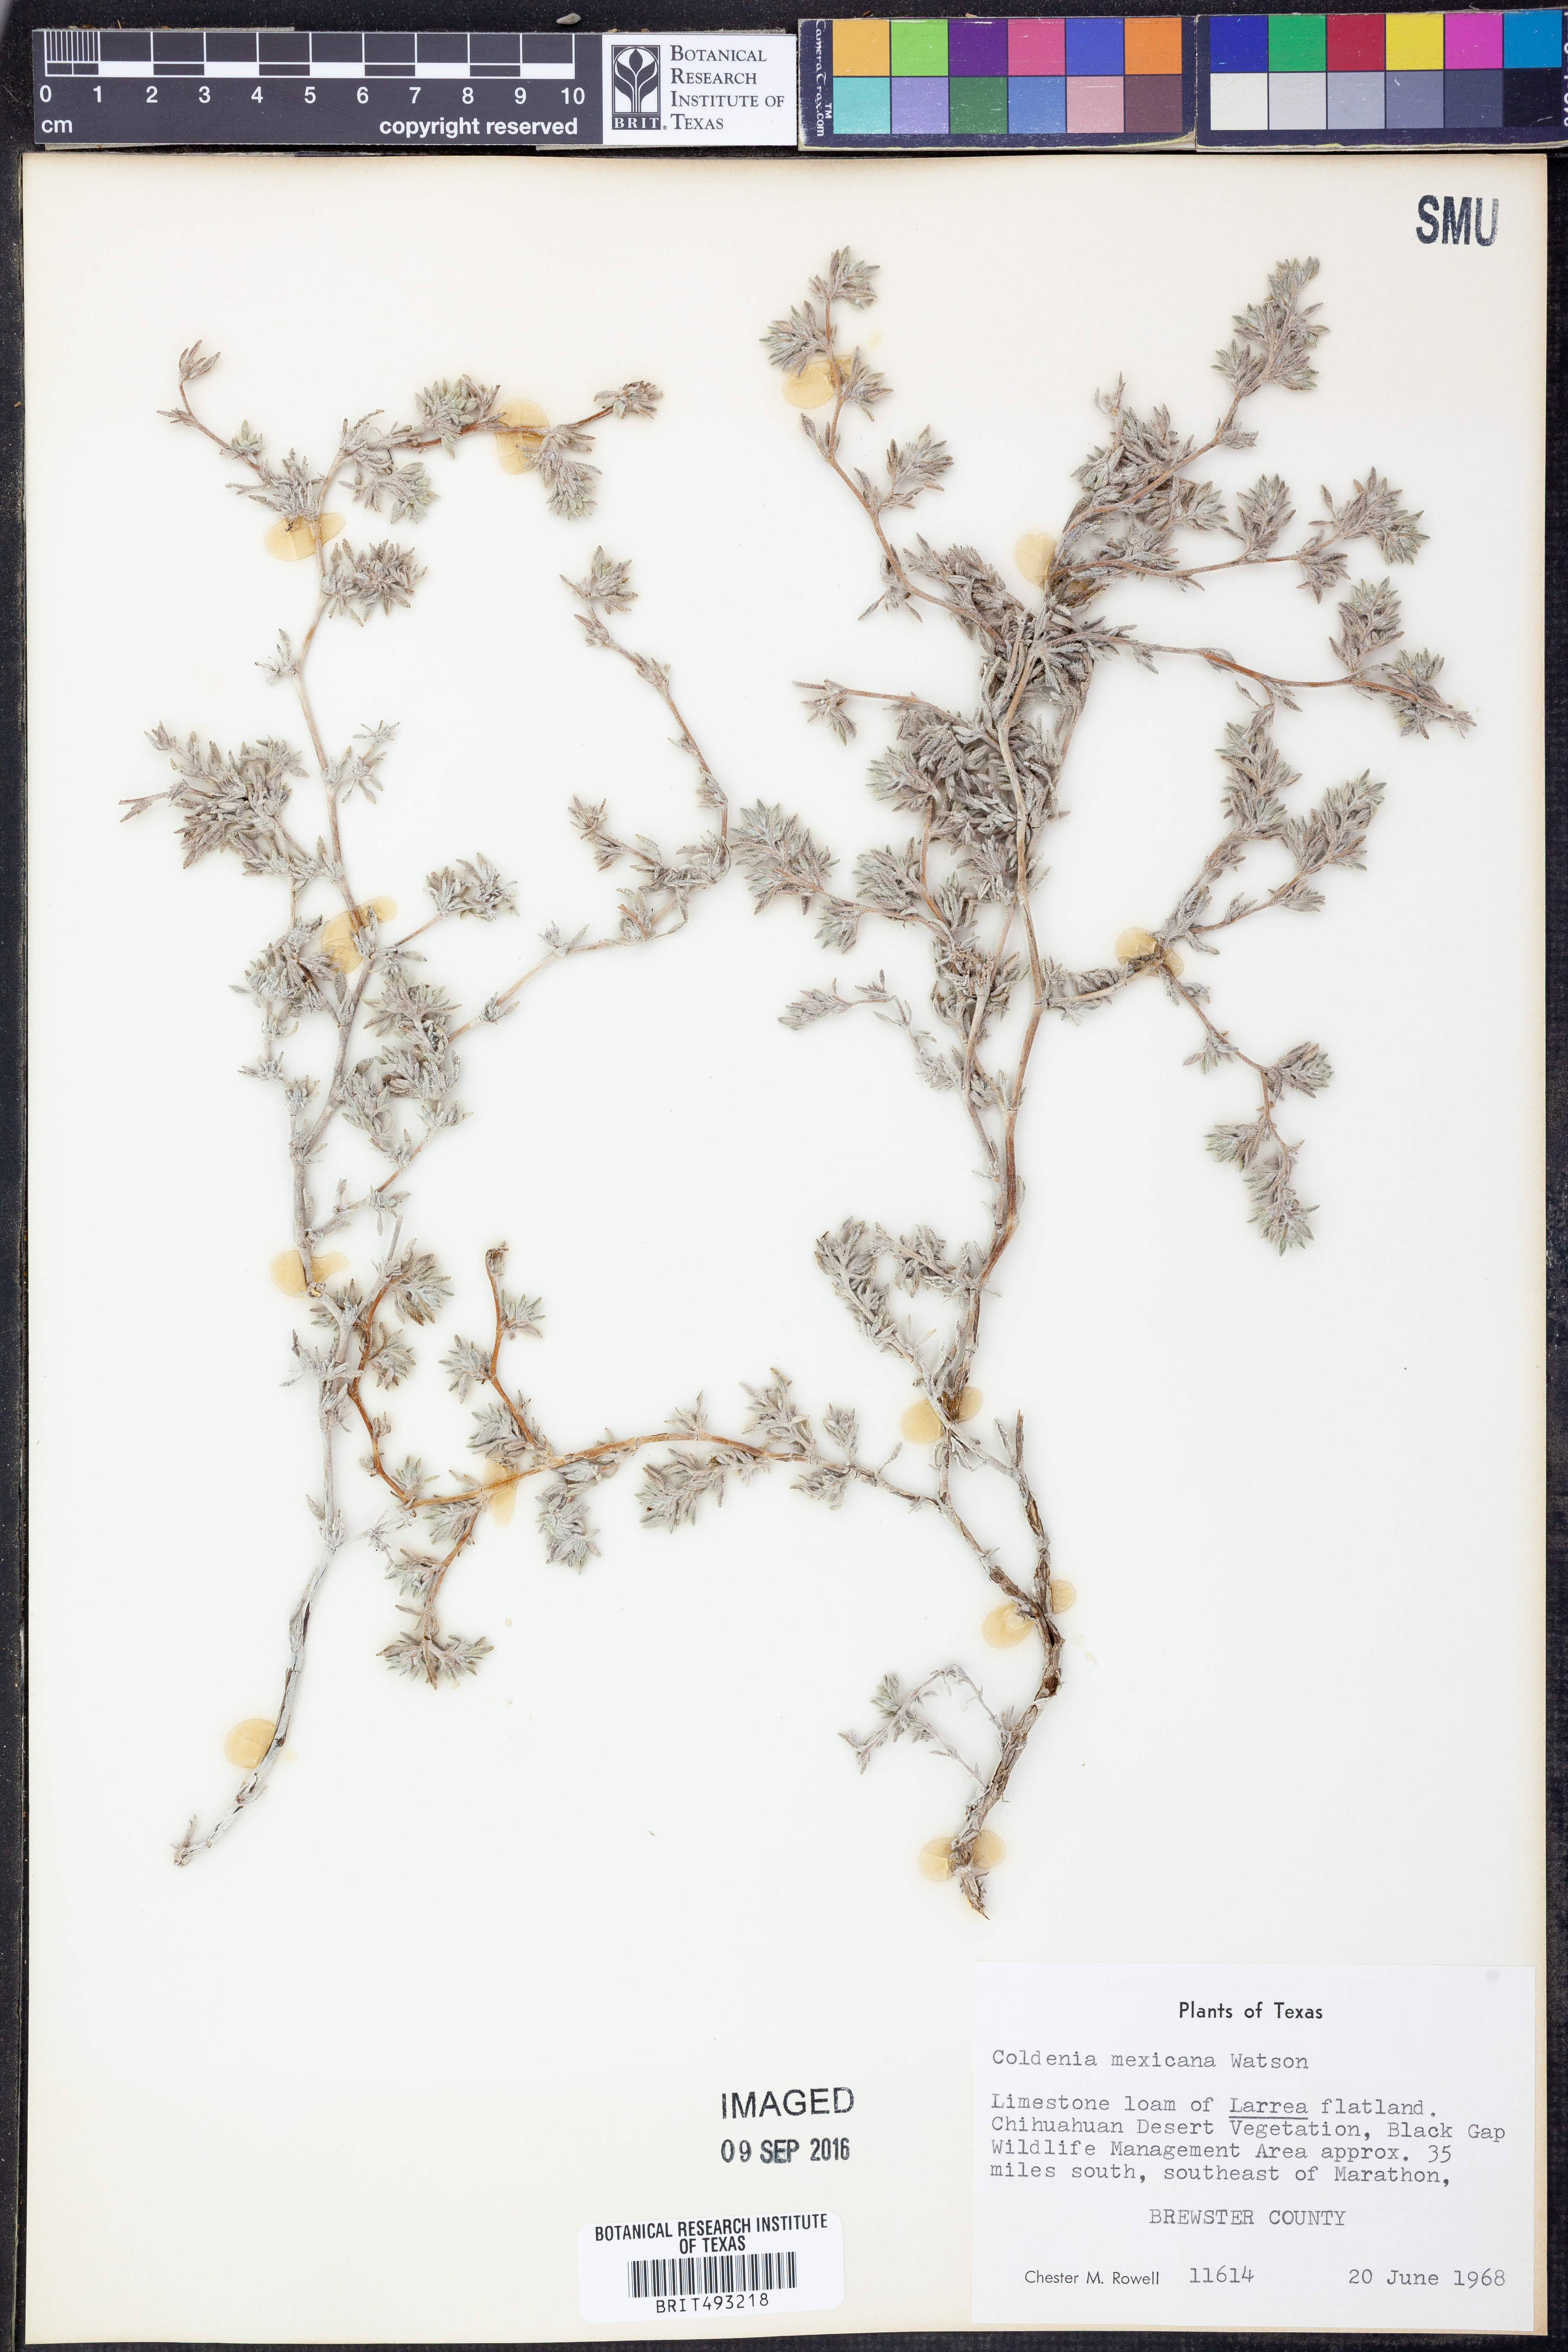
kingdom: Plantae
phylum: Tracheophyta
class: Magnoliopsida
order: Boraginales
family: Ehretiaceae
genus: Tiquilia
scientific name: Tiquilia mexicana
